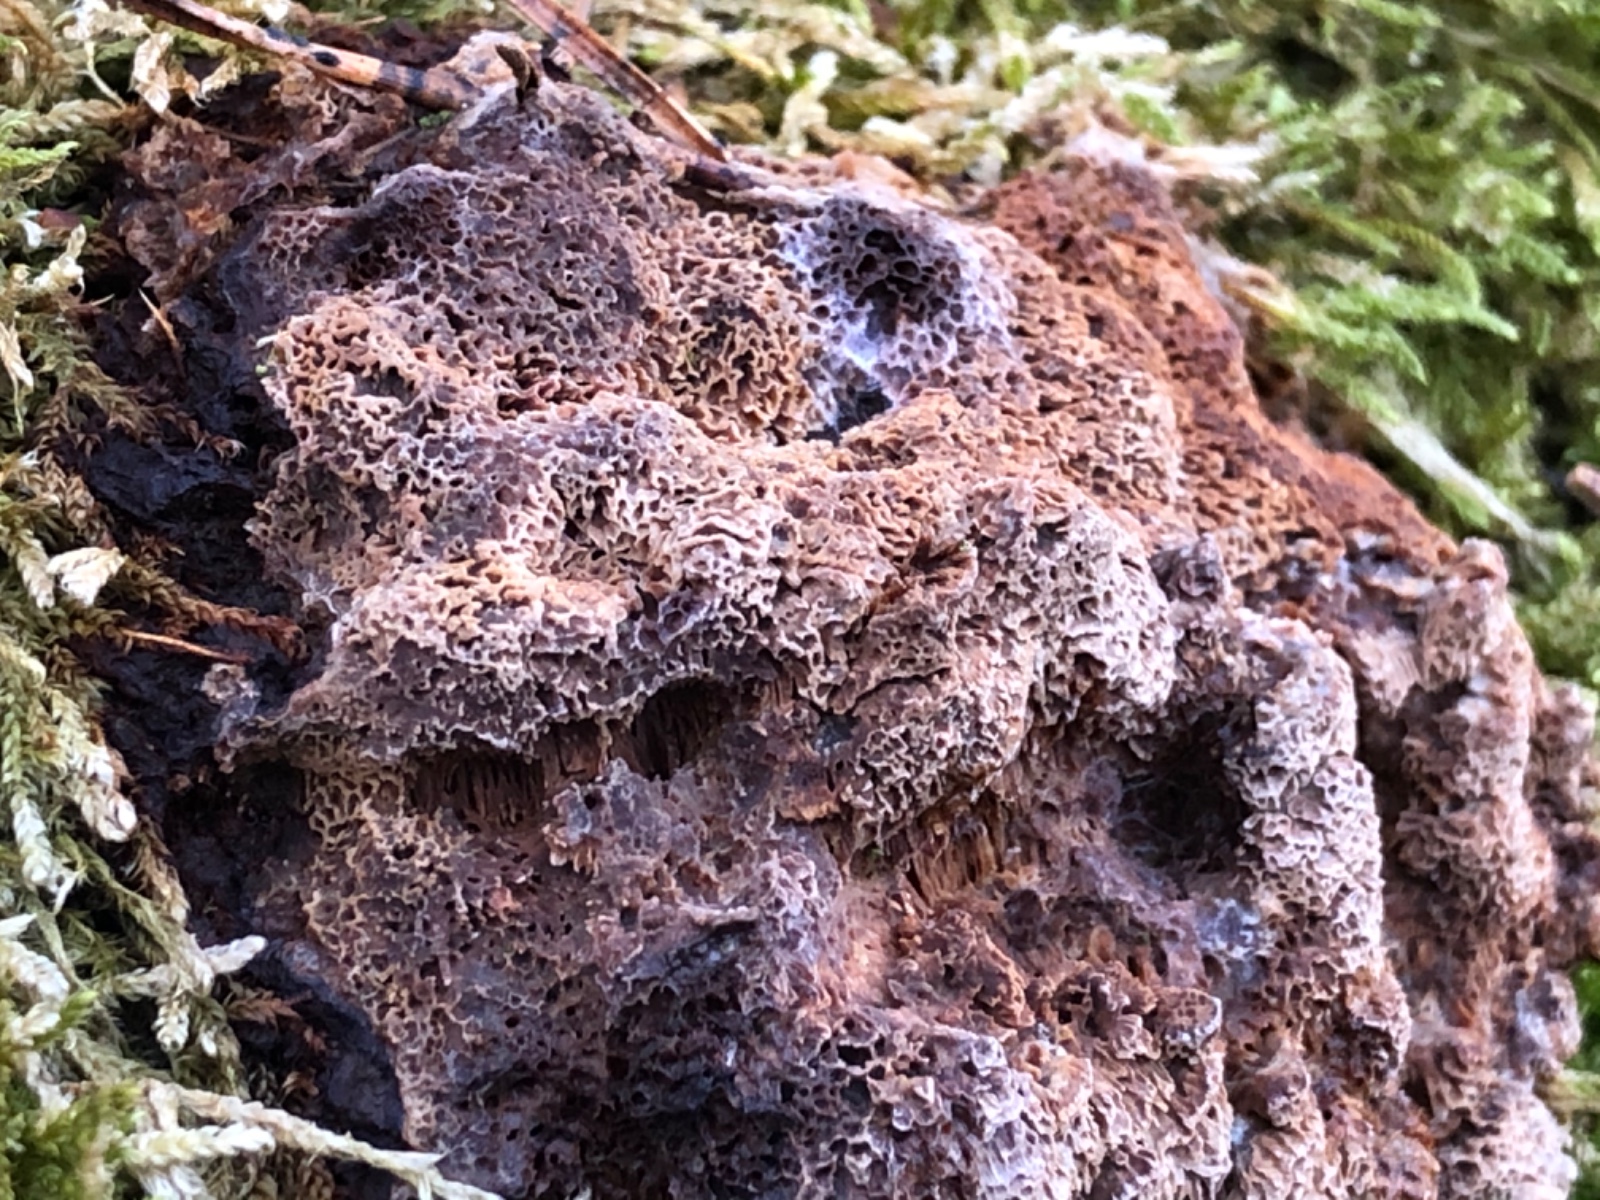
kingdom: Fungi
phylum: Basidiomycota
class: Agaricomycetes
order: Polyporales
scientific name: Polyporales
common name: poresvampordenen
